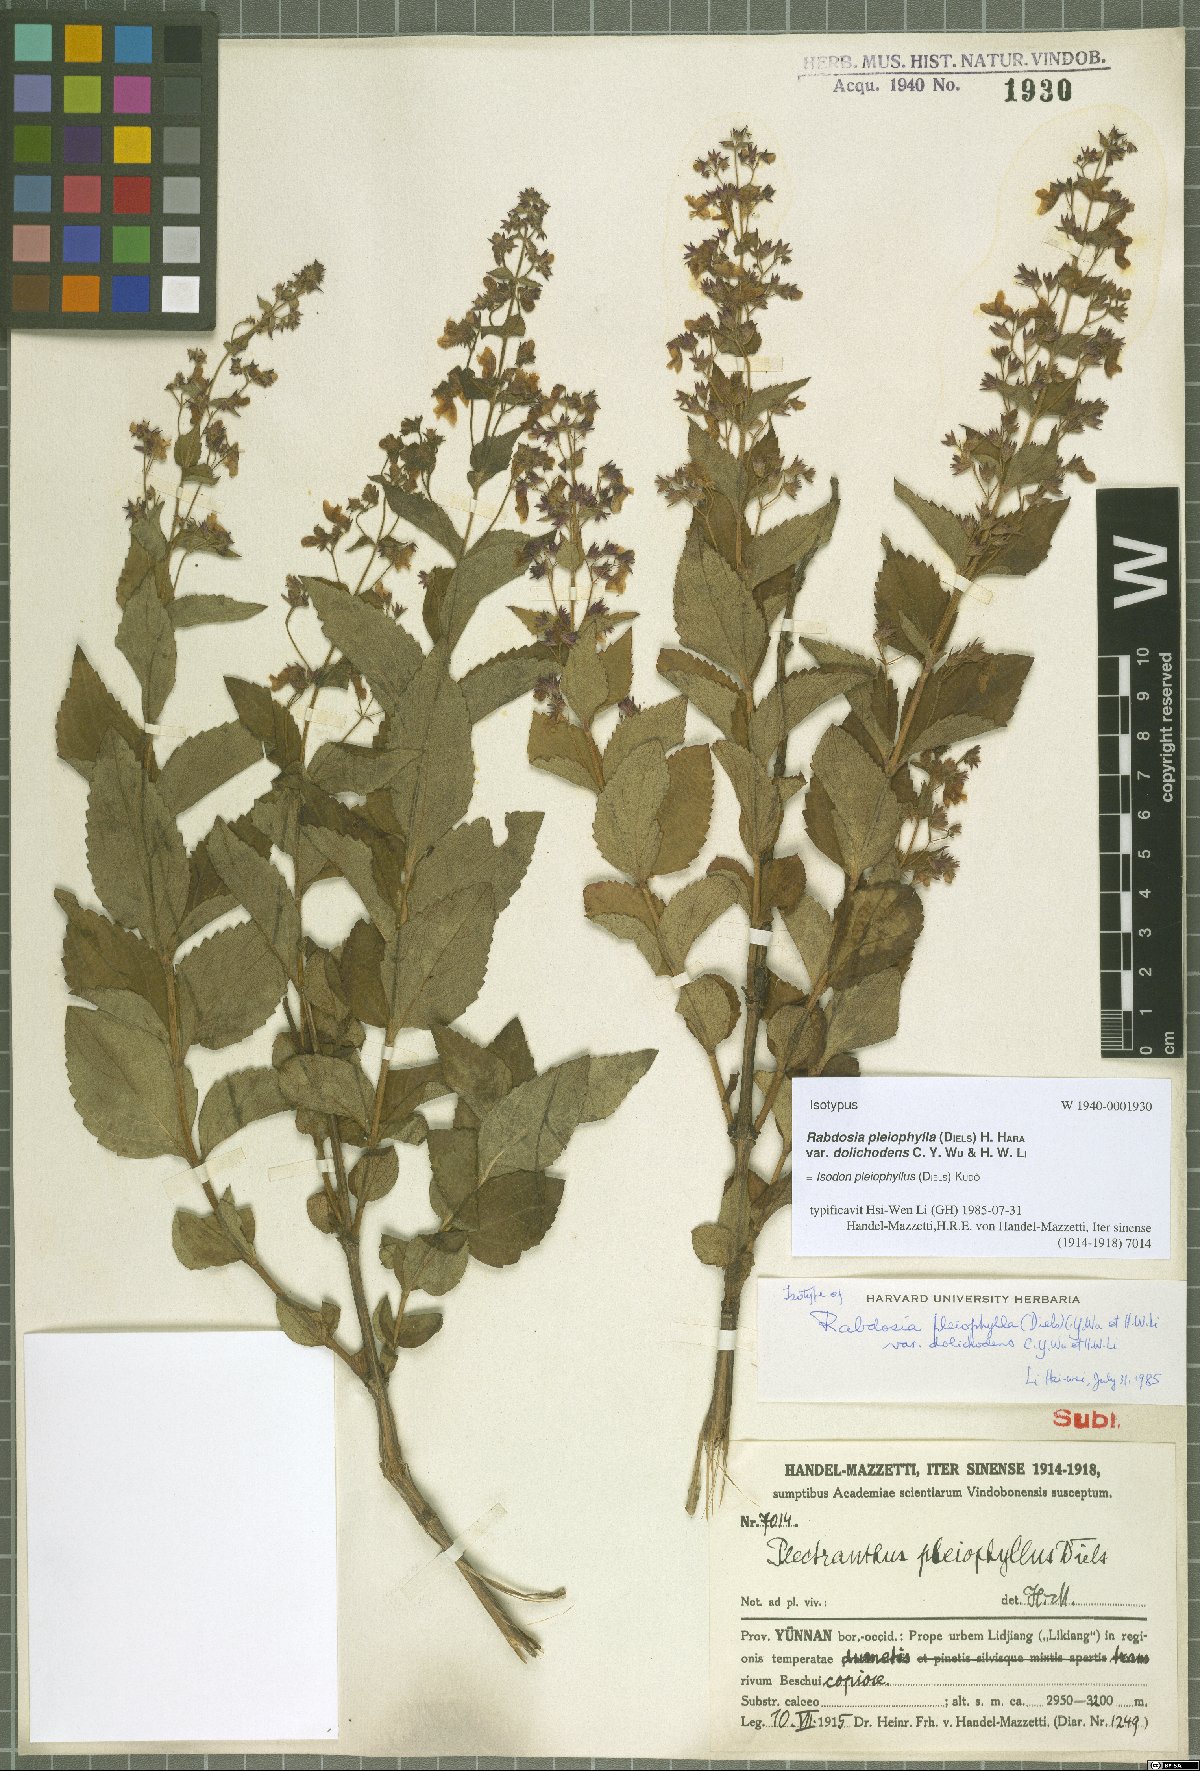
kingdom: Plantae
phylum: Tracheophyta
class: Magnoliopsida
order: Lamiales
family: Lamiaceae
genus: Isodon
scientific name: Isodon pleiophyllus
